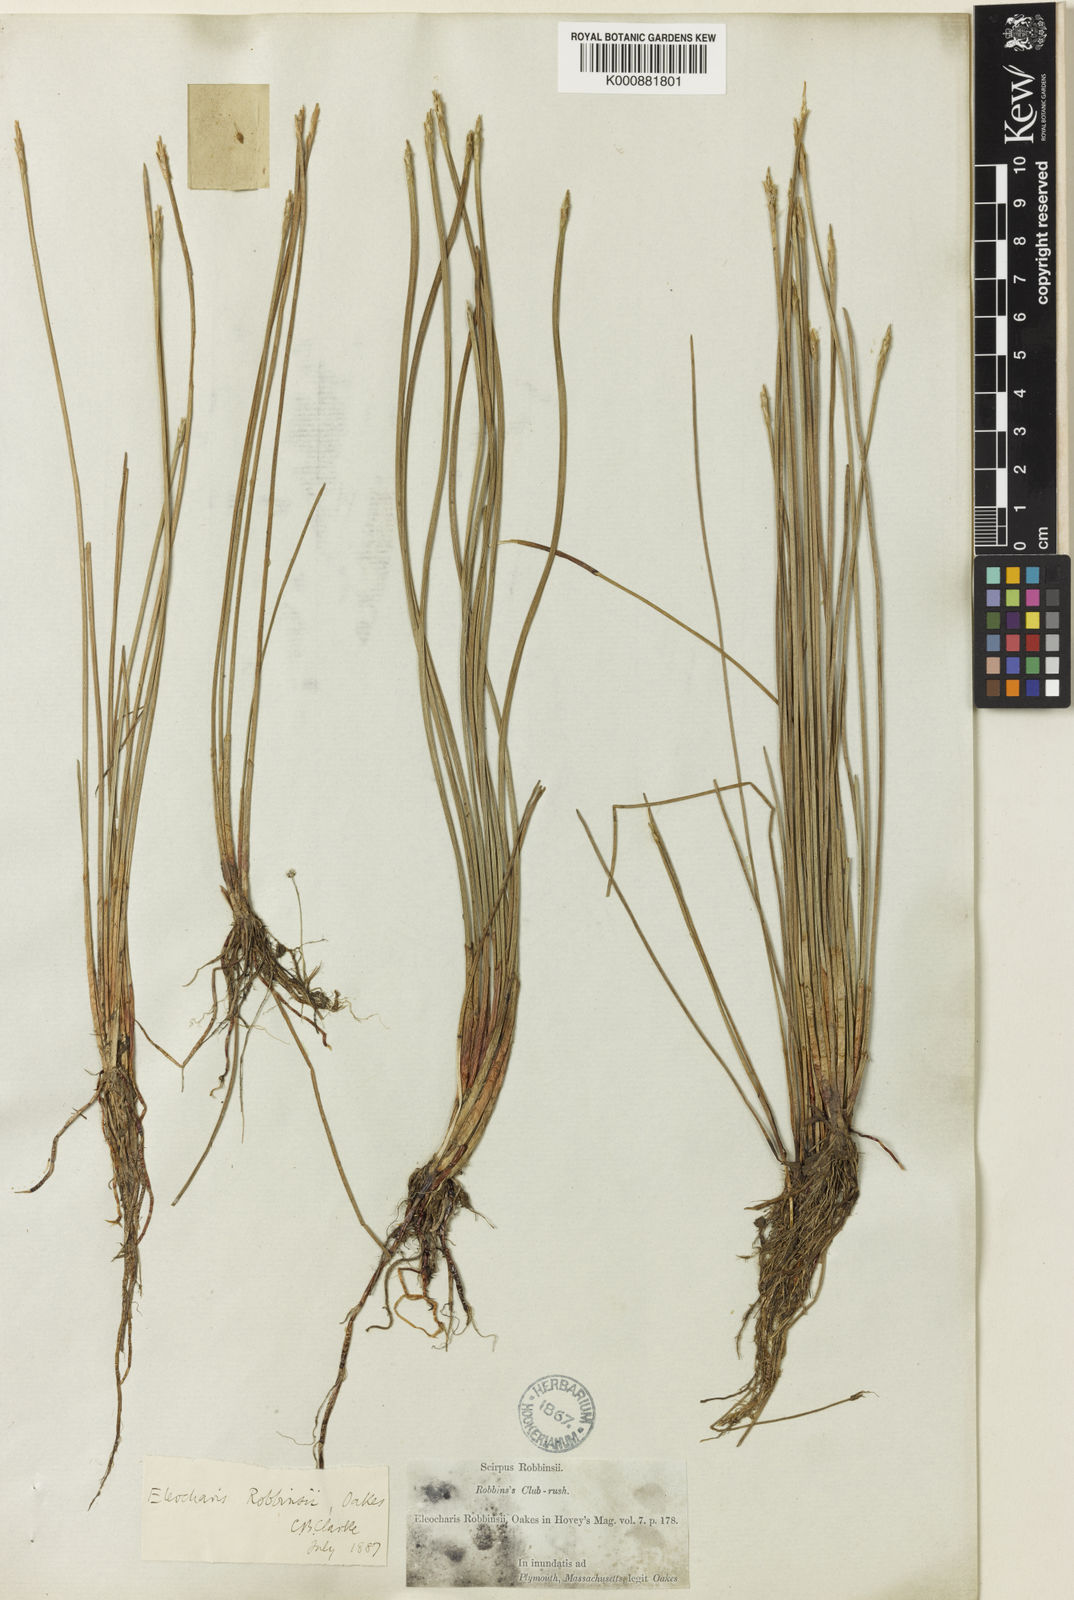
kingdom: Plantae
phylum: Tracheophyta
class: Liliopsida
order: Poales
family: Cyperaceae
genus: Eleocharis
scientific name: Eleocharis robbinsii
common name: Robbins' spikerush
